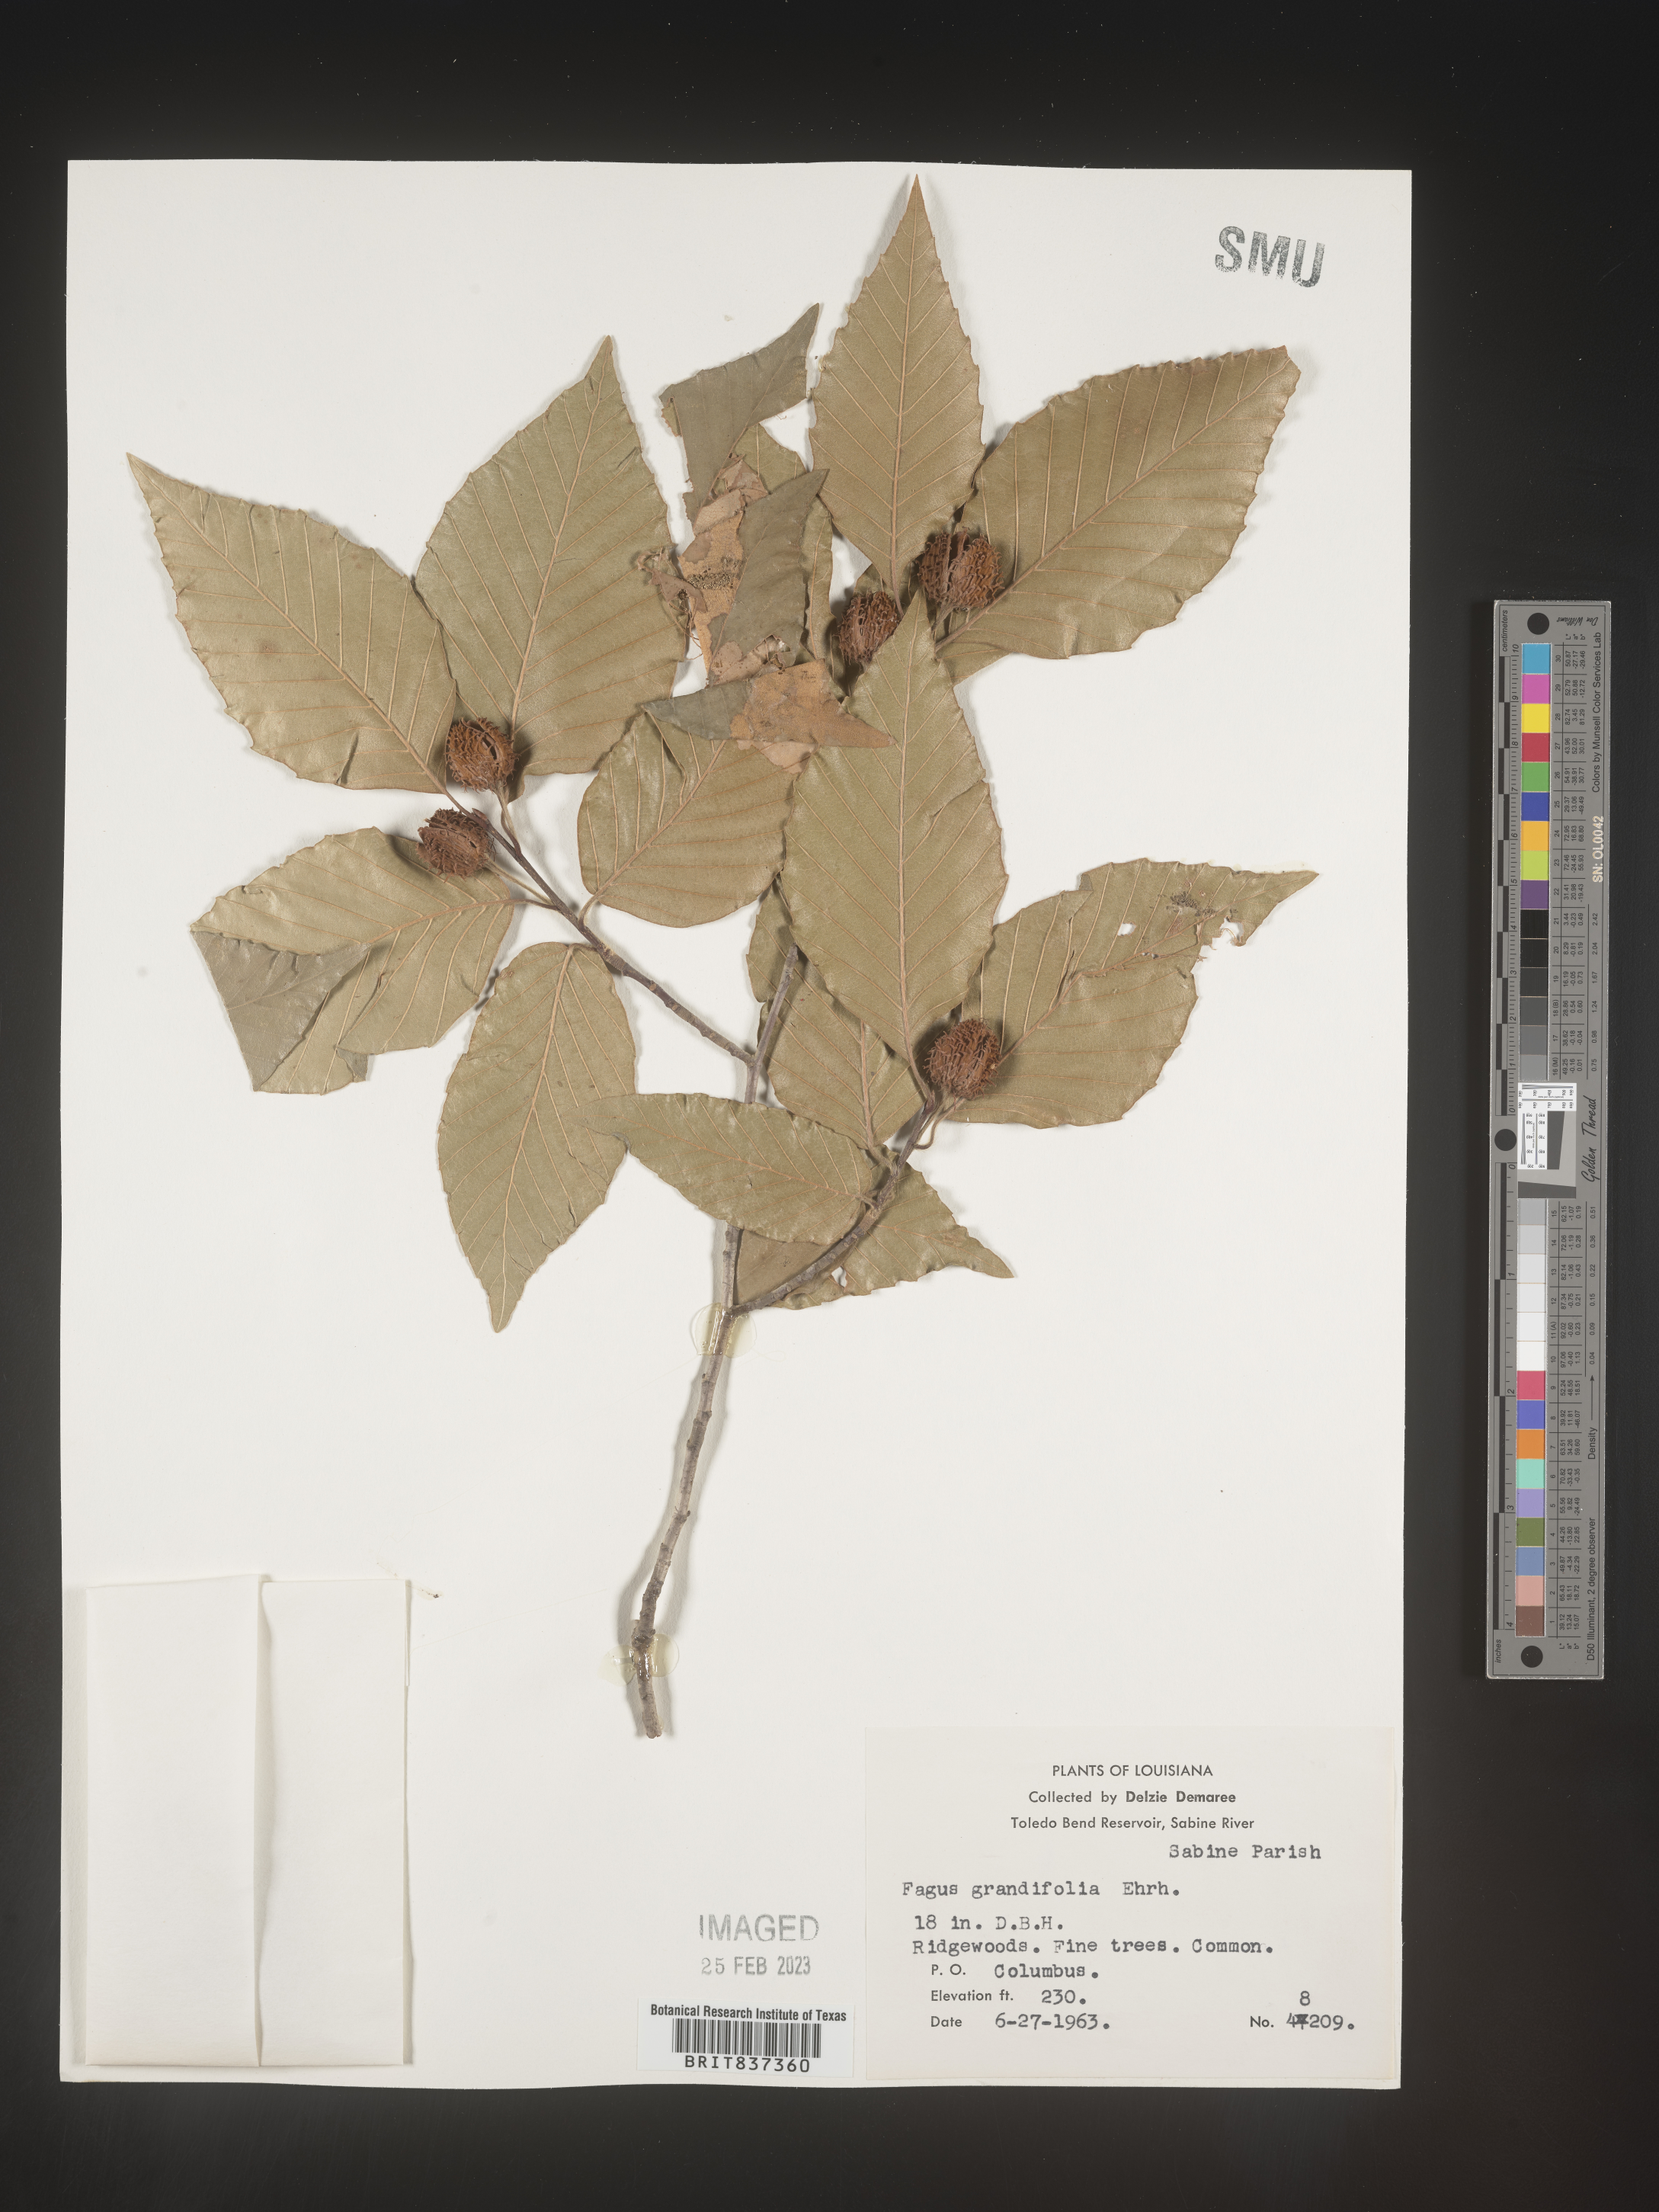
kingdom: Plantae
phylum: Tracheophyta
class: Magnoliopsida
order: Fagales
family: Fagaceae
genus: Fagus
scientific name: Fagus grandifolia
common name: American beech
